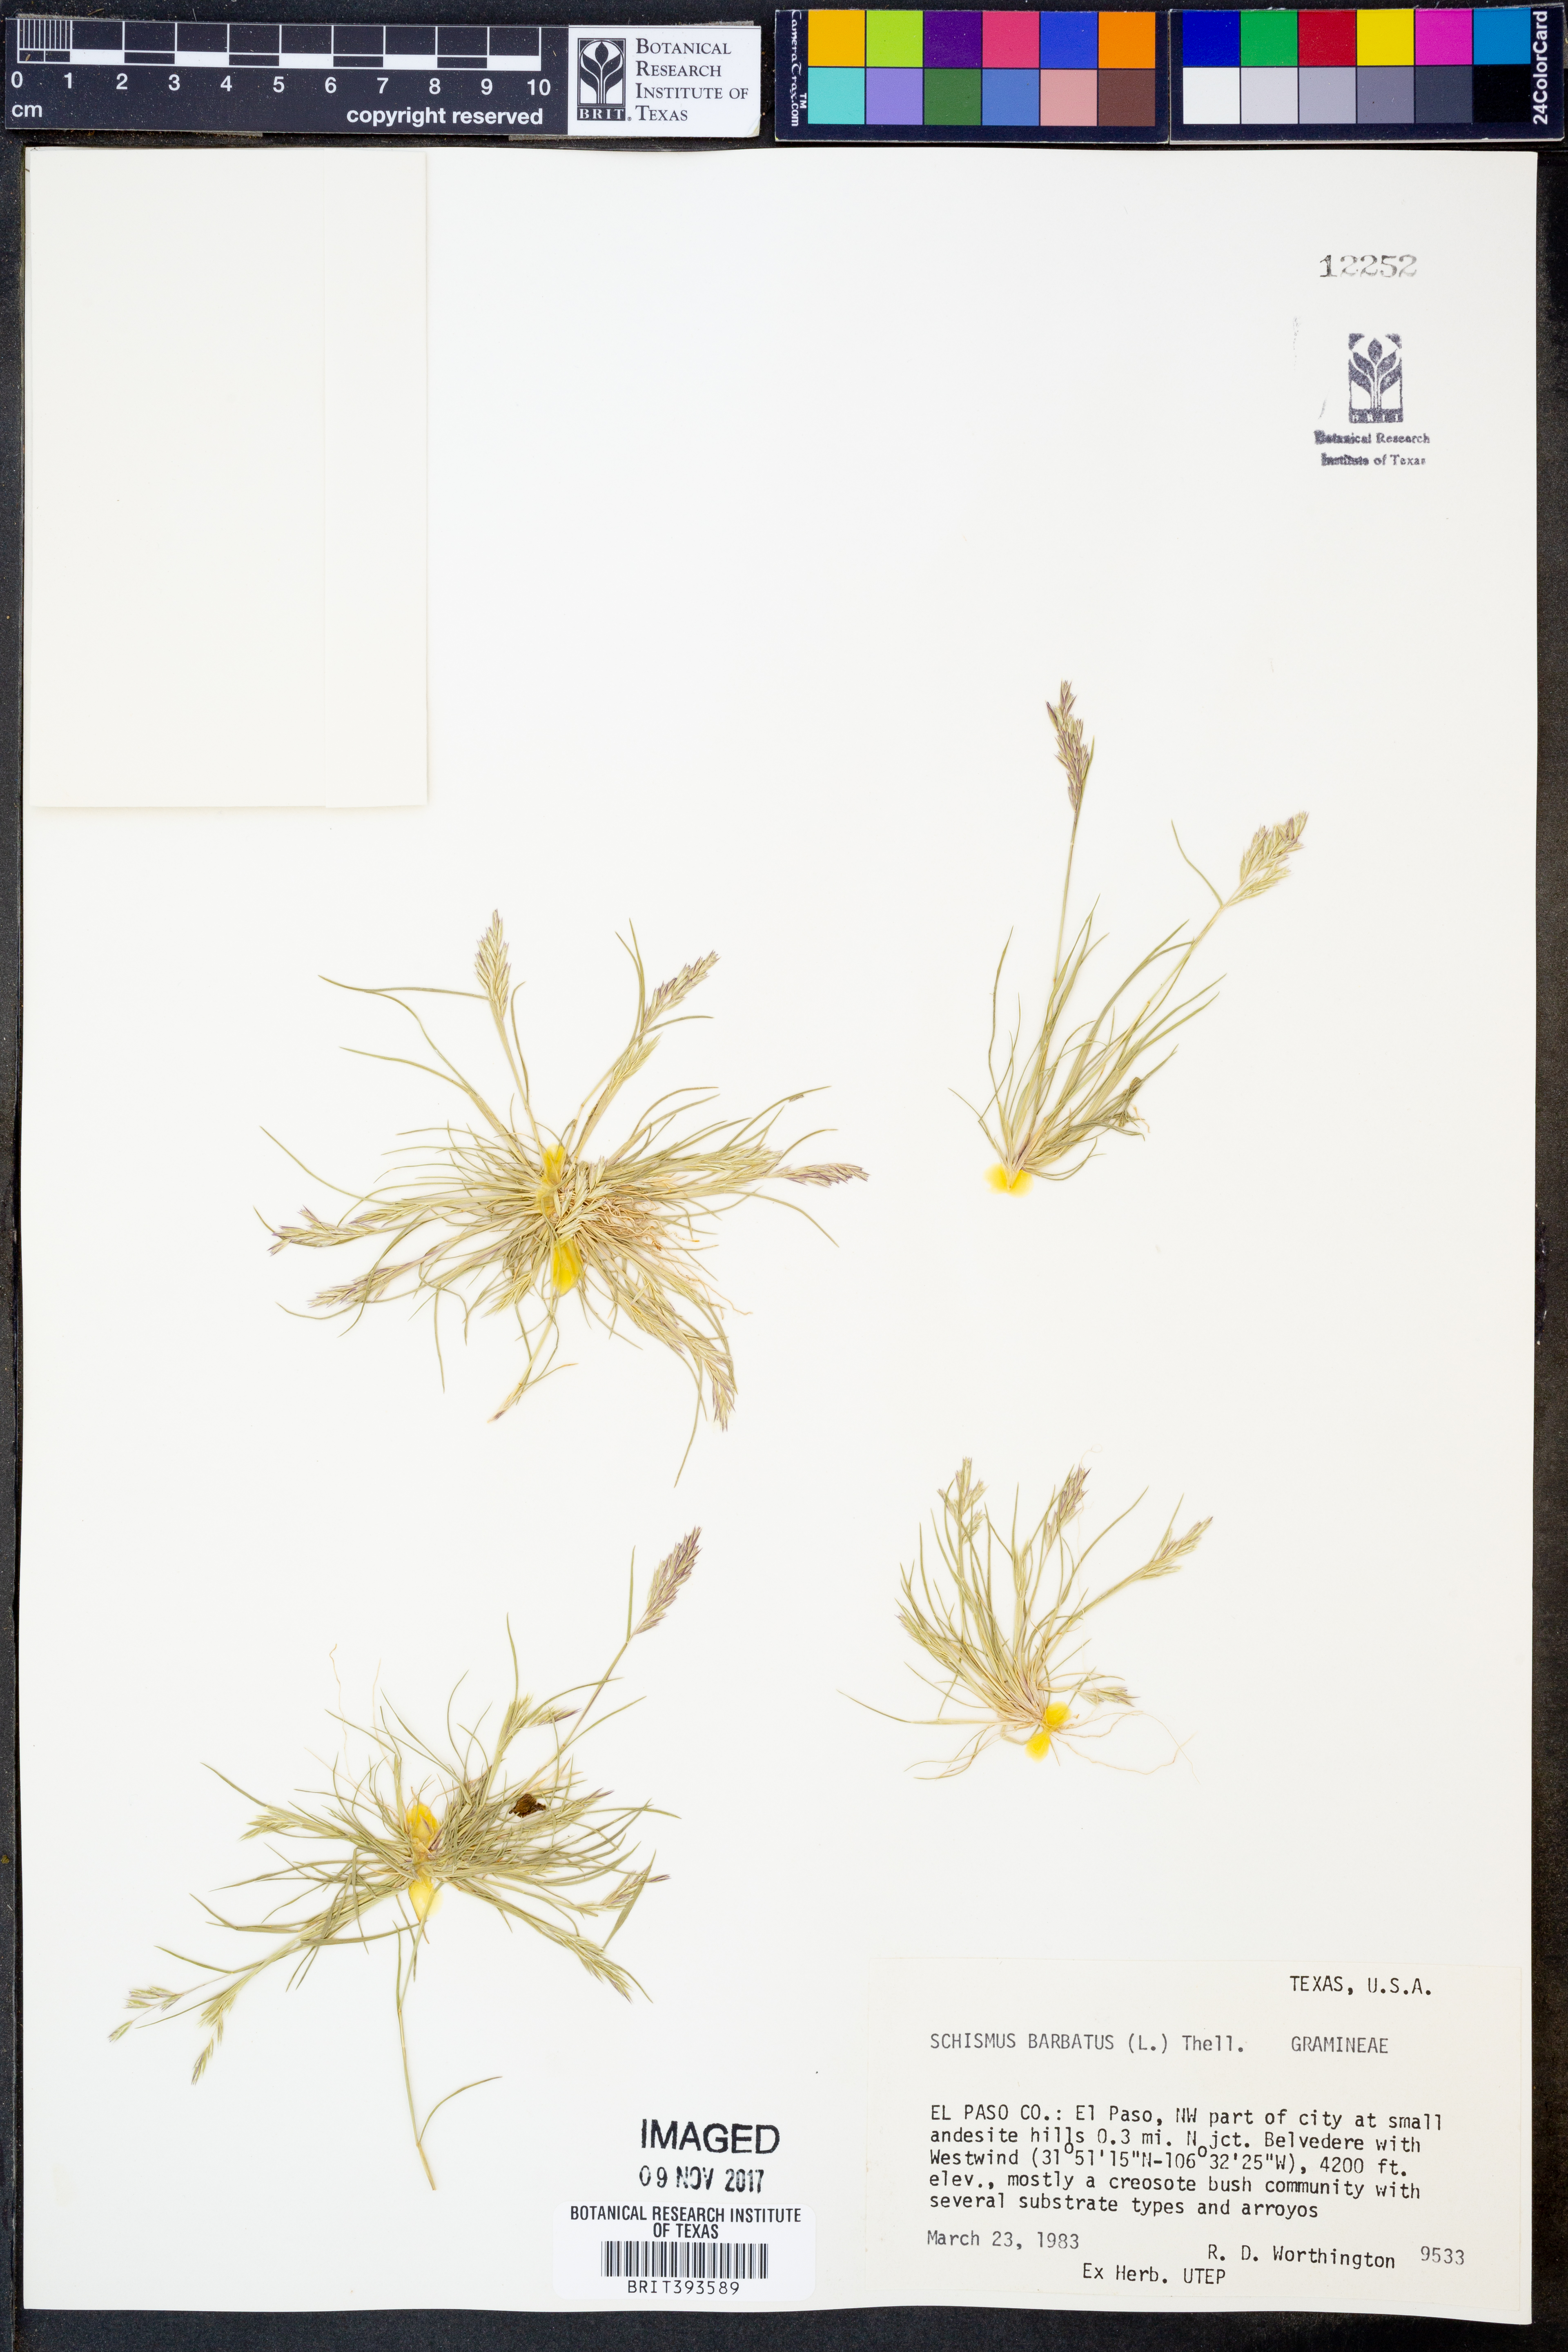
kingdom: Plantae
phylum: Tracheophyta
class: Liliopsida
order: Poales
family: Poaceae
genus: Schismus
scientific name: Schismus barbatus
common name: Kelch-grass
